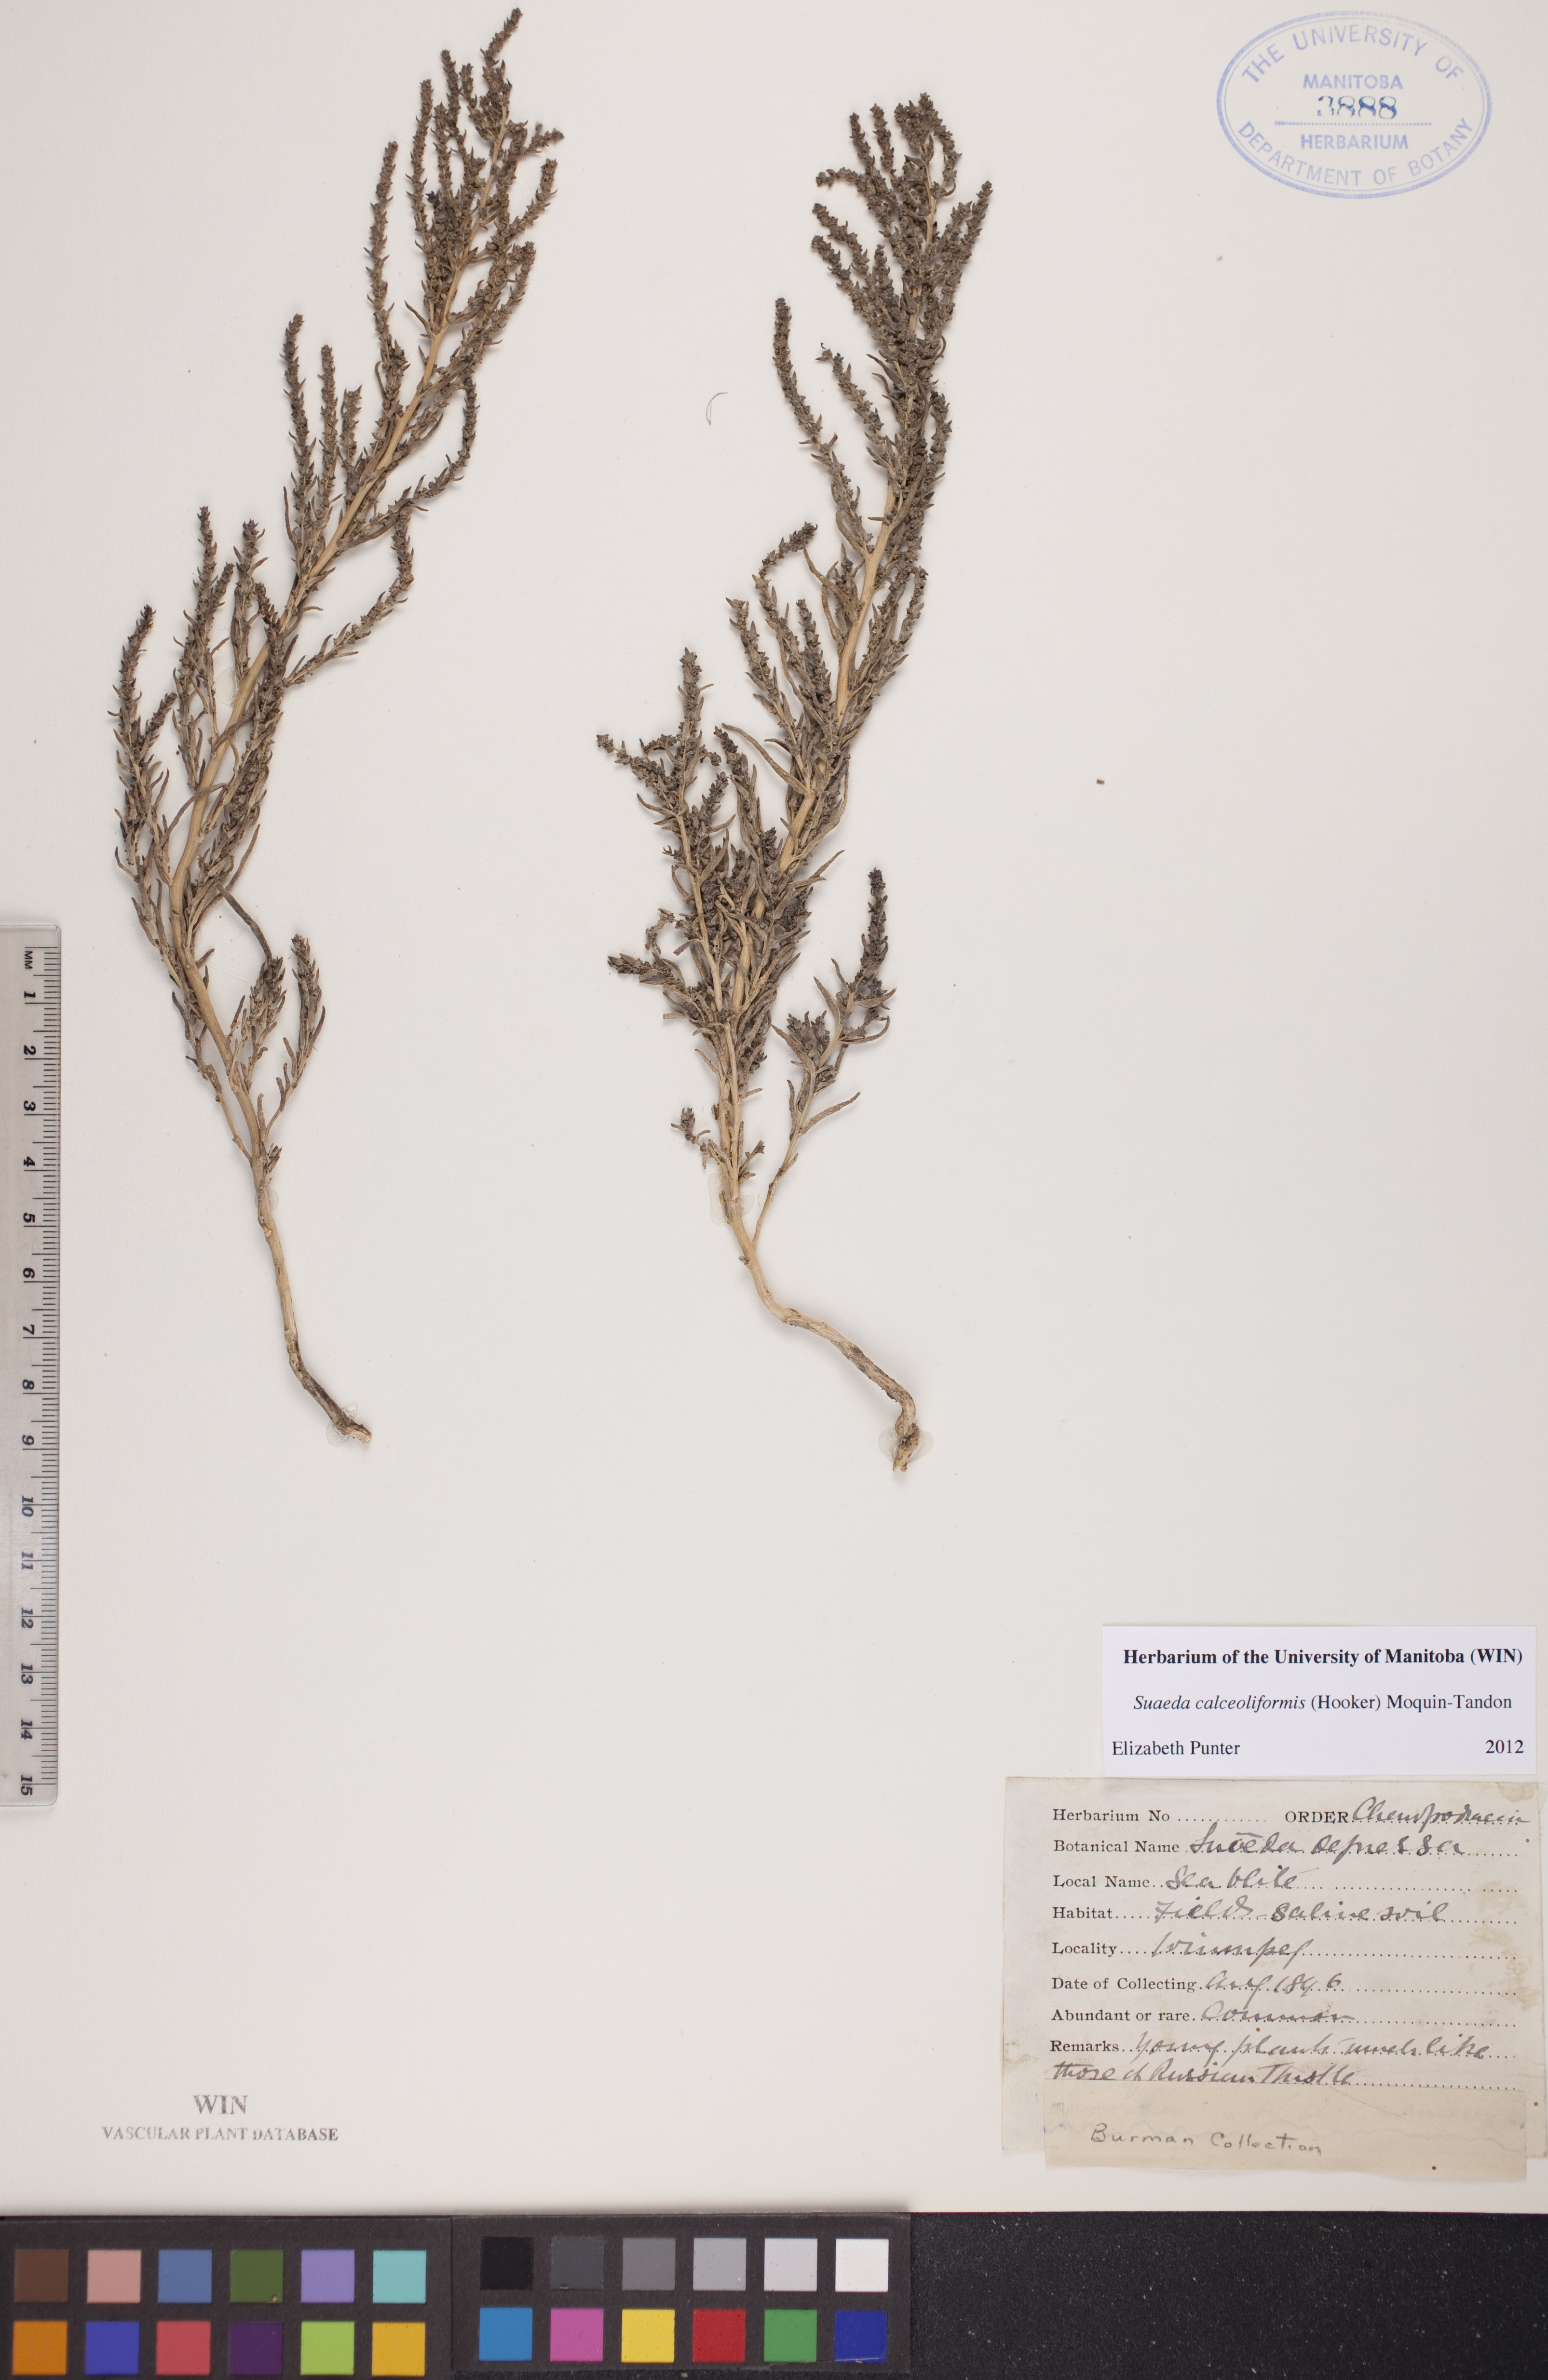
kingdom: Plantae
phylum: Tracheophyta
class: Magnoliopsida
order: Caryophyllales
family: Amaranthaceae
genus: Suaeda
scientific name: Suaeda calceoliformis
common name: Pursh's seepweed
